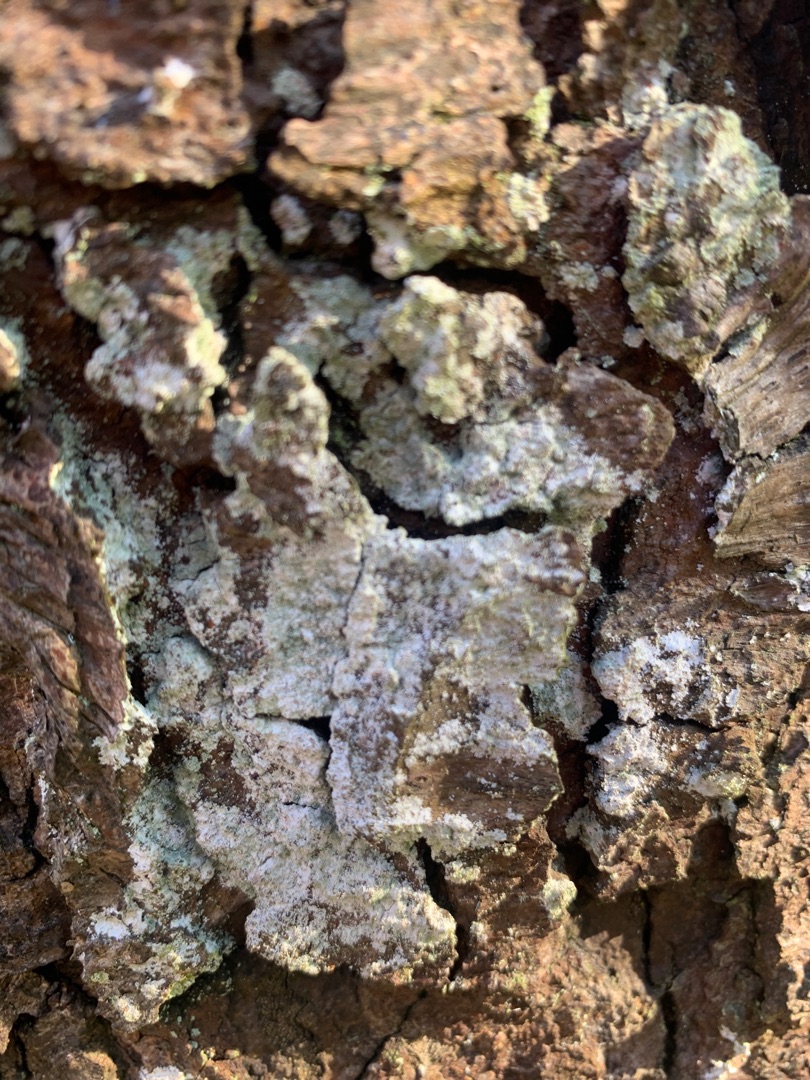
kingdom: Fungi
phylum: Ascomycota
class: Lecanoromycetes
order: Lecanorales
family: Stereocaulaceae
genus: Lepraria
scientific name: Lepraria
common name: Støvlav
